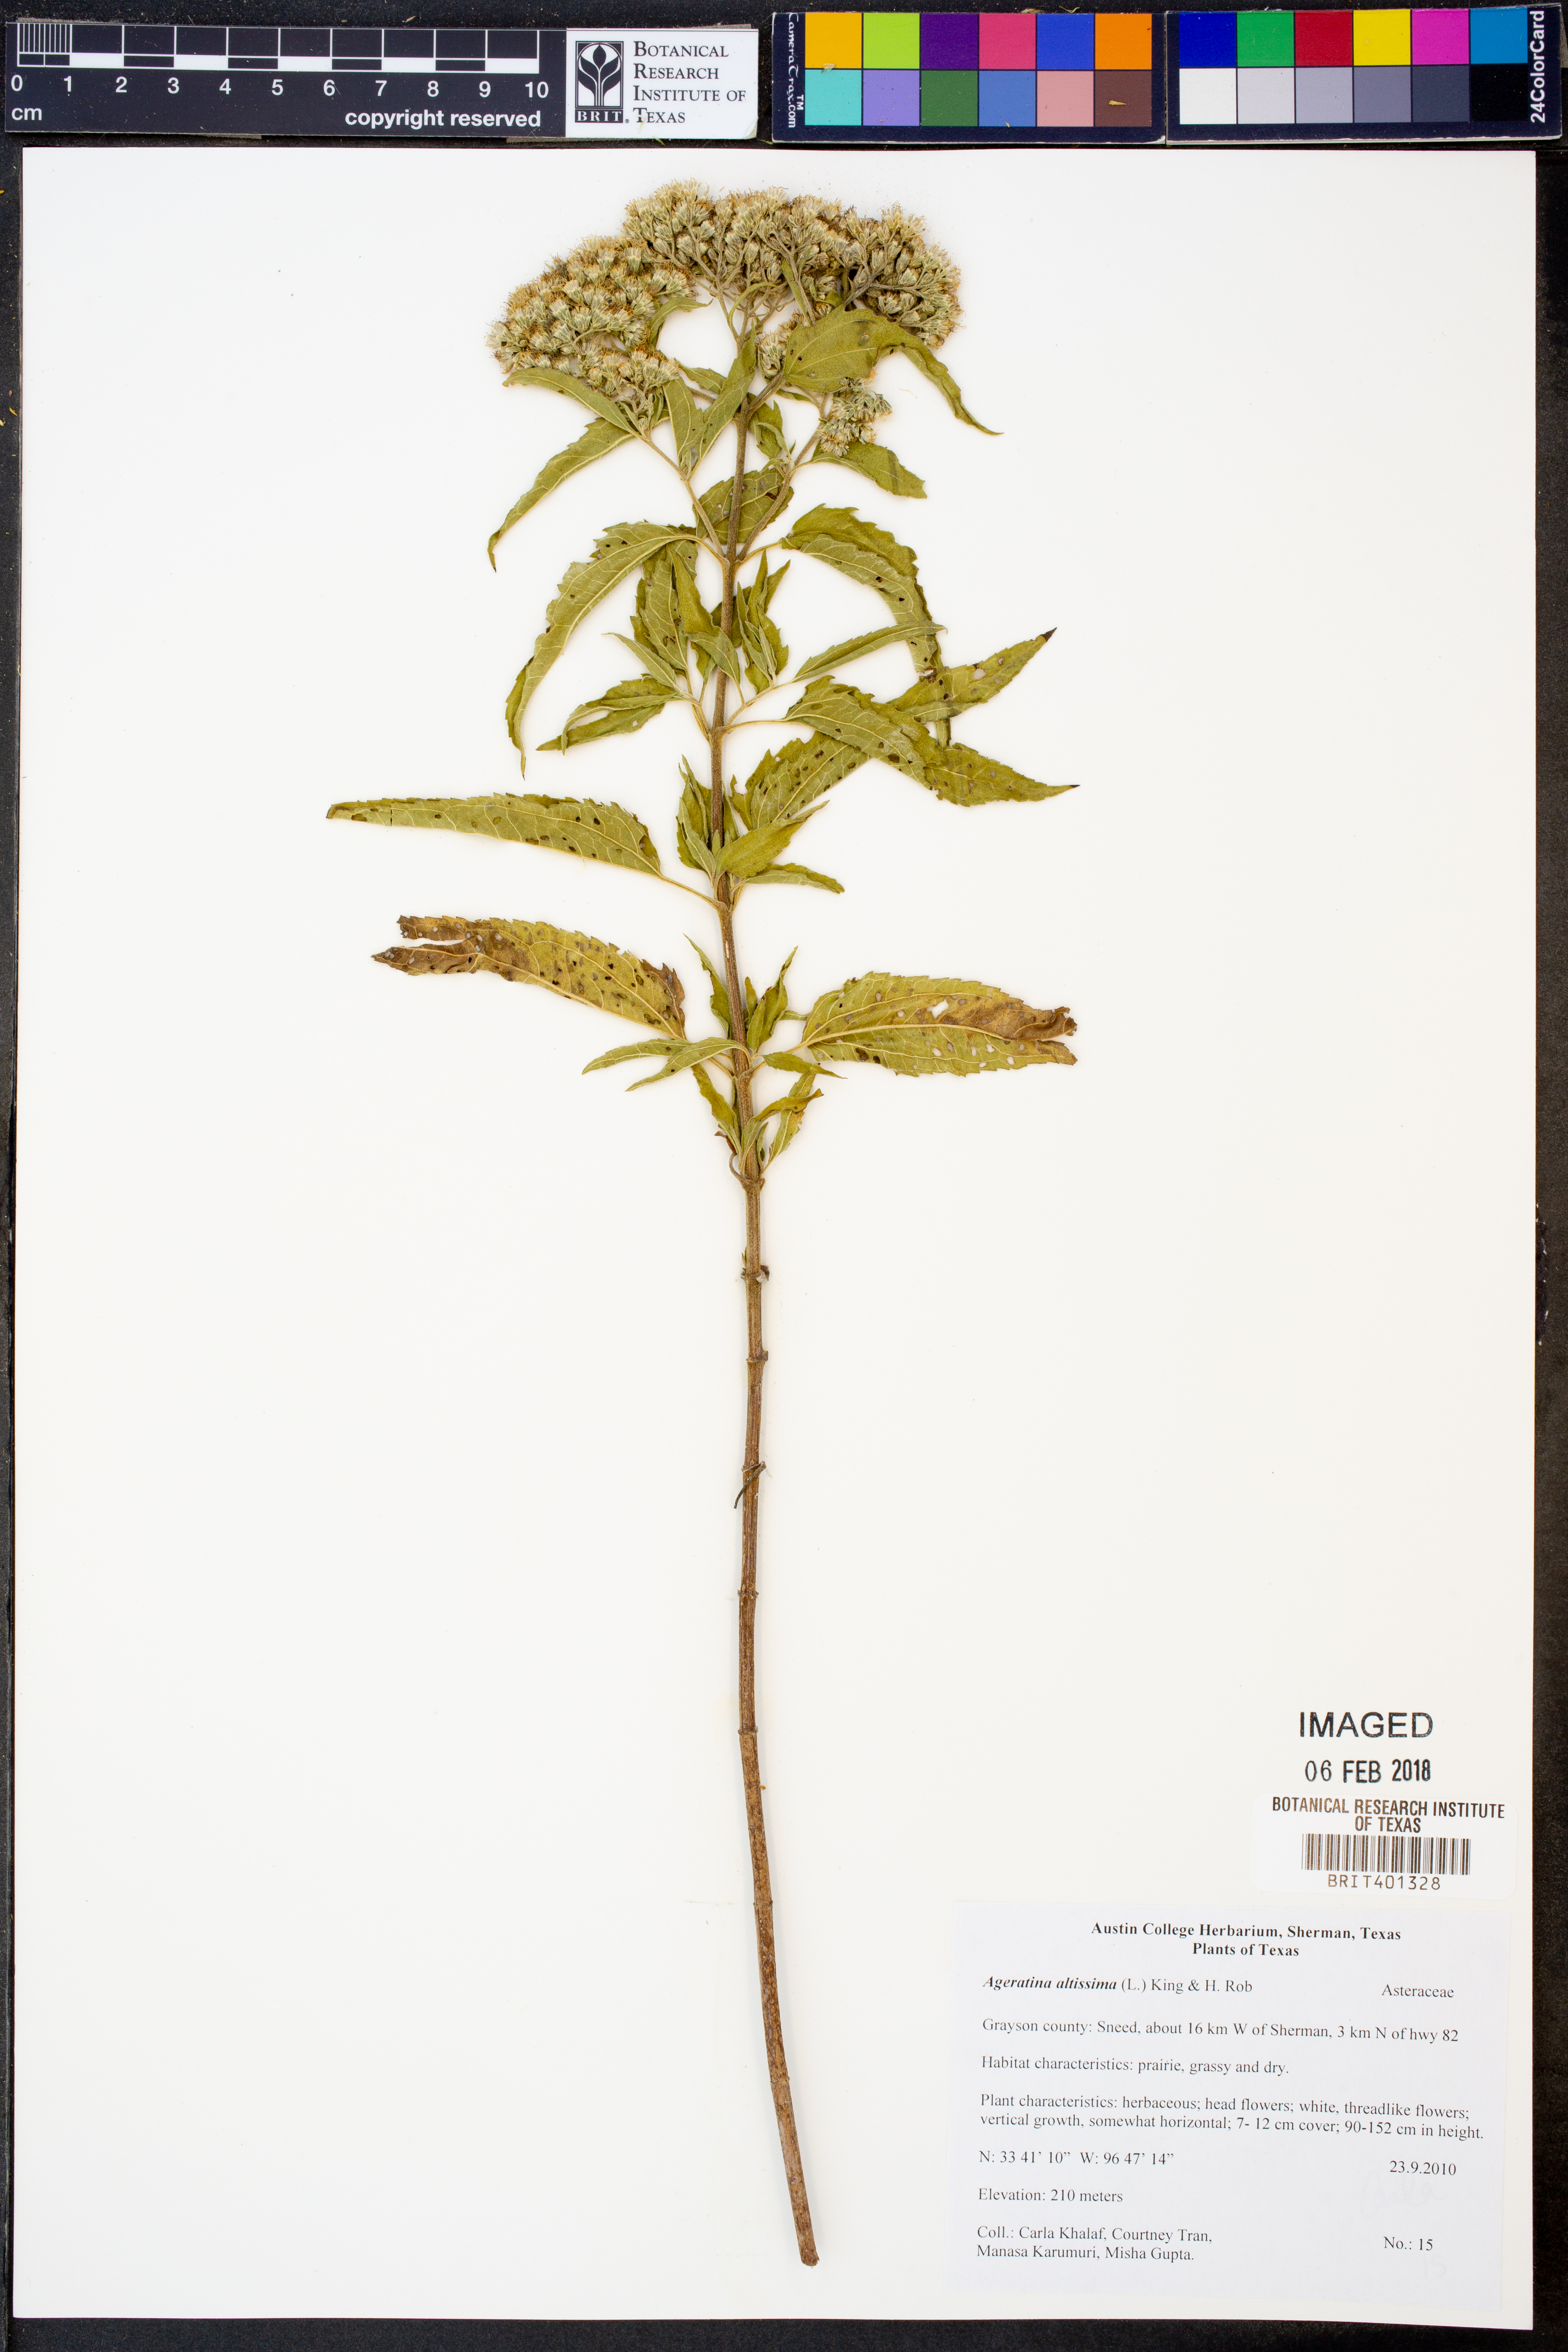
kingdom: Plantae
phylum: Tracheophyta
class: Magnoliopsida
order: Asterales
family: Asteraceae
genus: Ageratina
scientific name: Ageratina altissima
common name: White snakeroot
